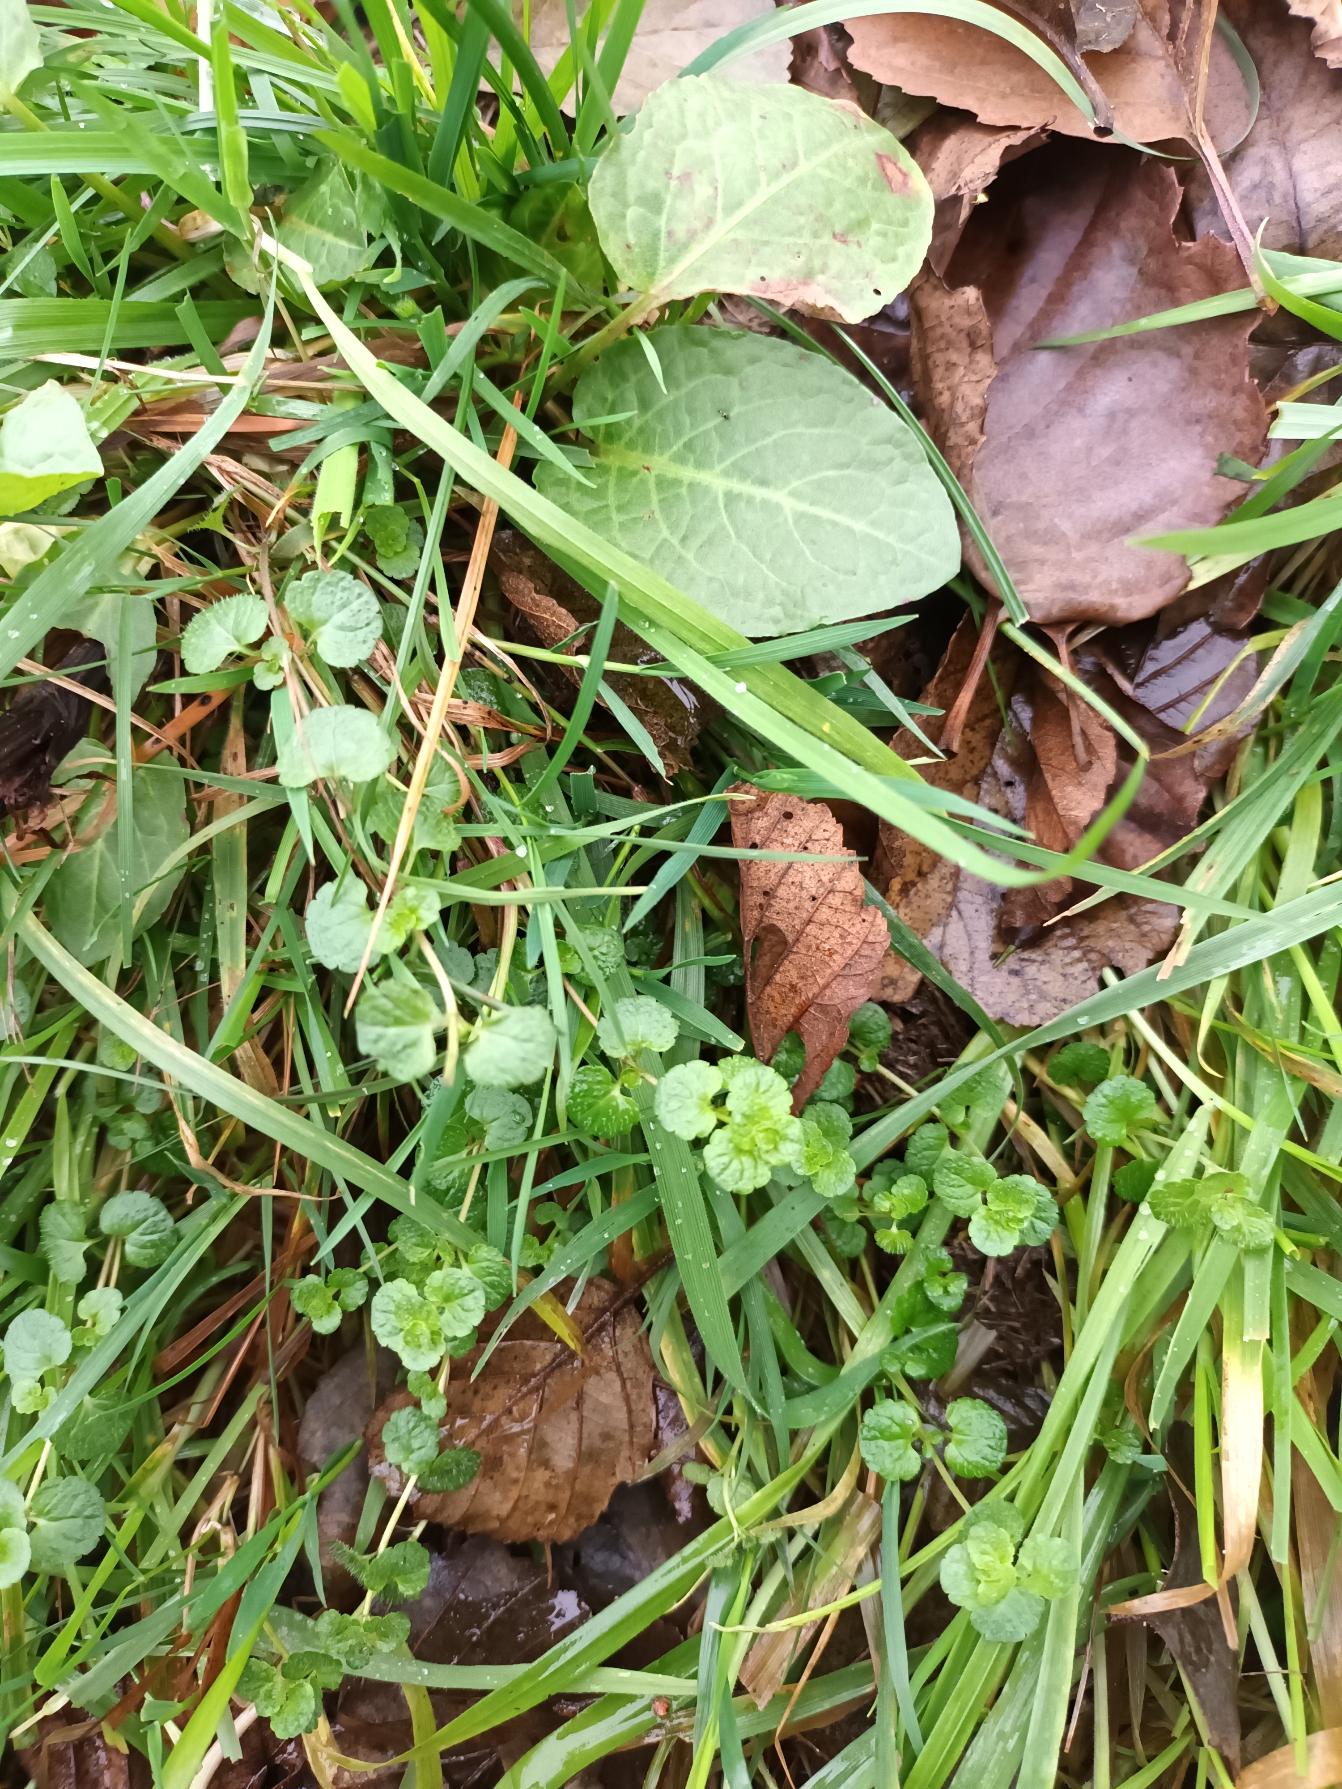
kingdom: Plantae
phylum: Tracheophyta
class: Magnoliopsida
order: Lamiales
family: Plantaginaceae
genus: Veronica
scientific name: Veronica filiformis
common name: Tråd-ærenpris
